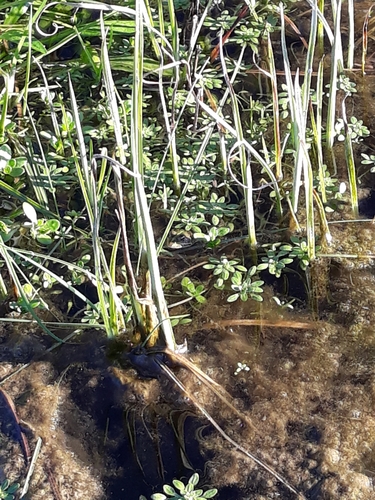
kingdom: Animalia
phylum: Chordata
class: Amphibia
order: Anura
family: Ranidae
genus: Pelophylax
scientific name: Pelophylax perezi
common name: Perez's frog
